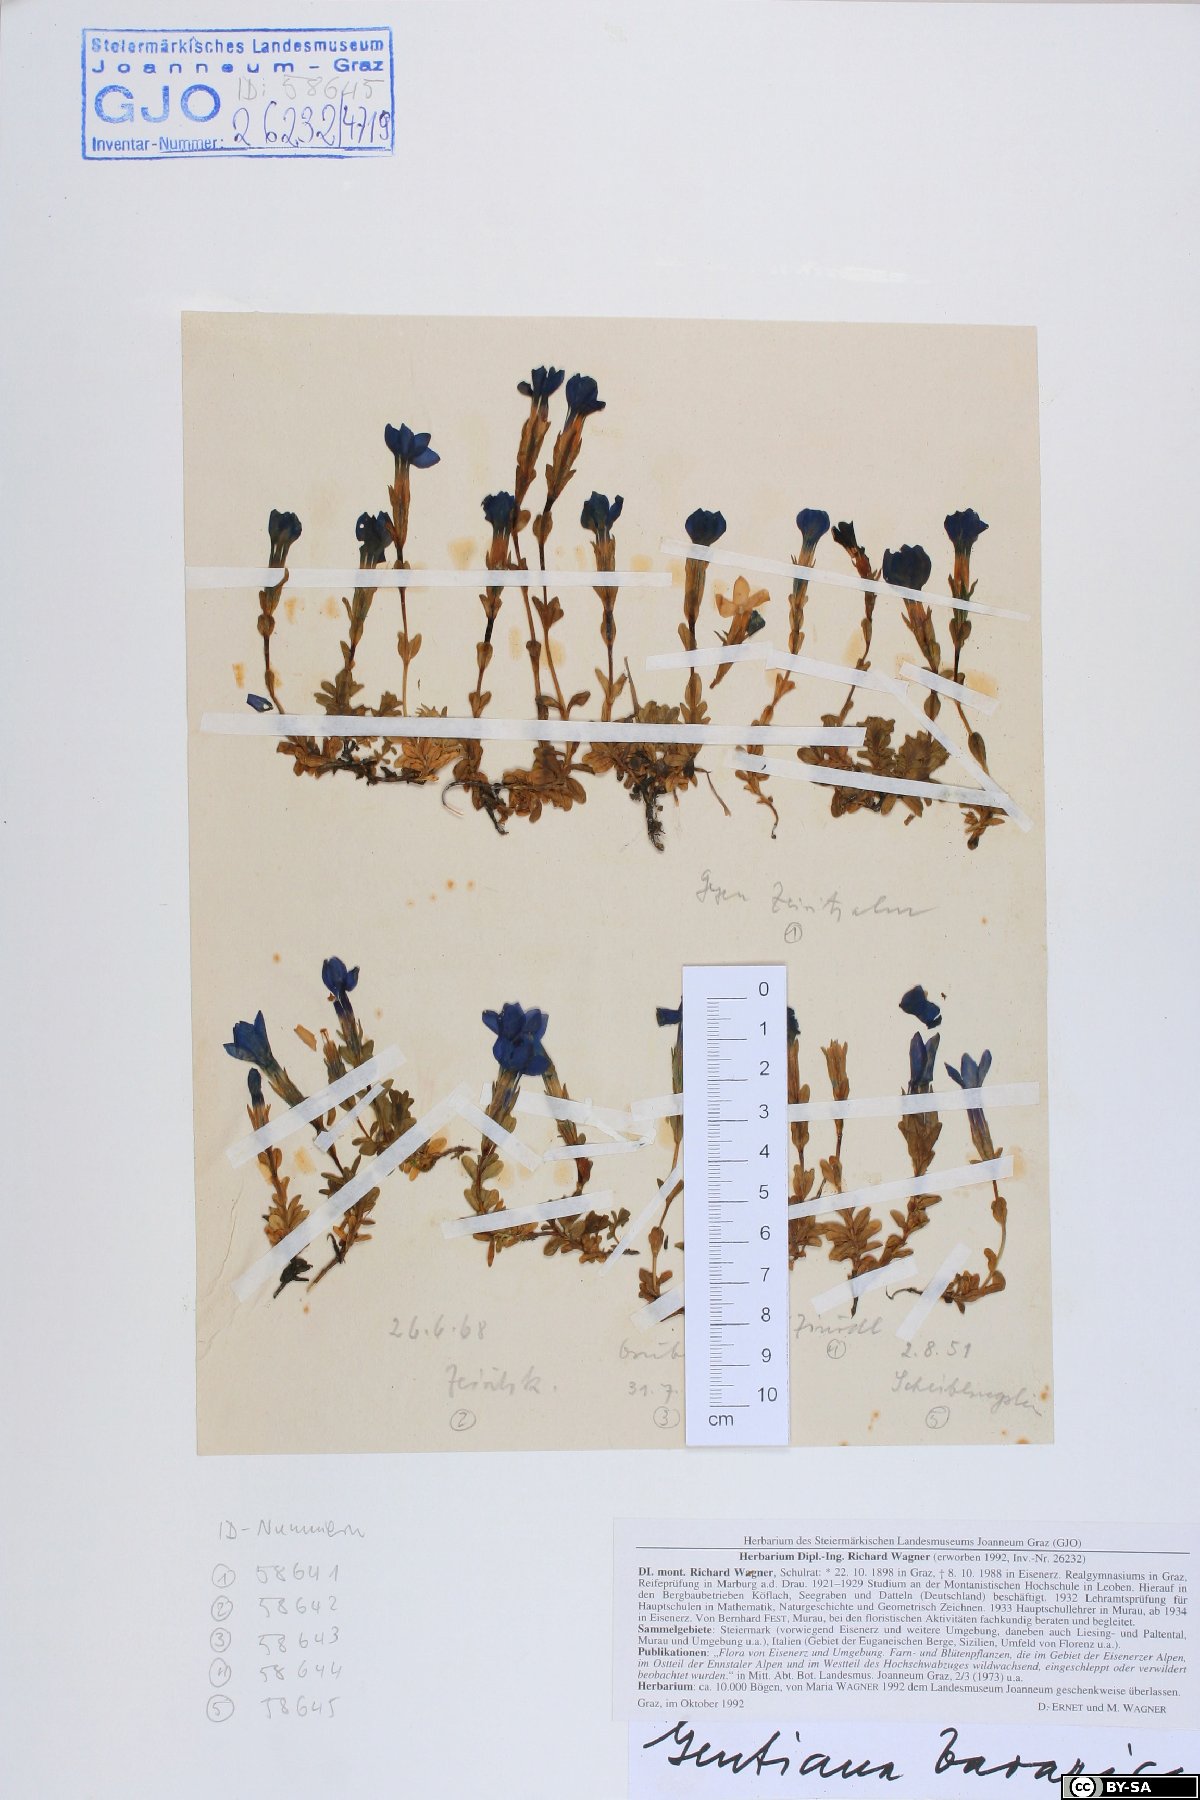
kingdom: Plantae
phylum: Tracheophyta
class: Magnoliopsida
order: Gentianales
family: Gentianaceae
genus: Gentiana
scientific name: Gentiana bavarica
